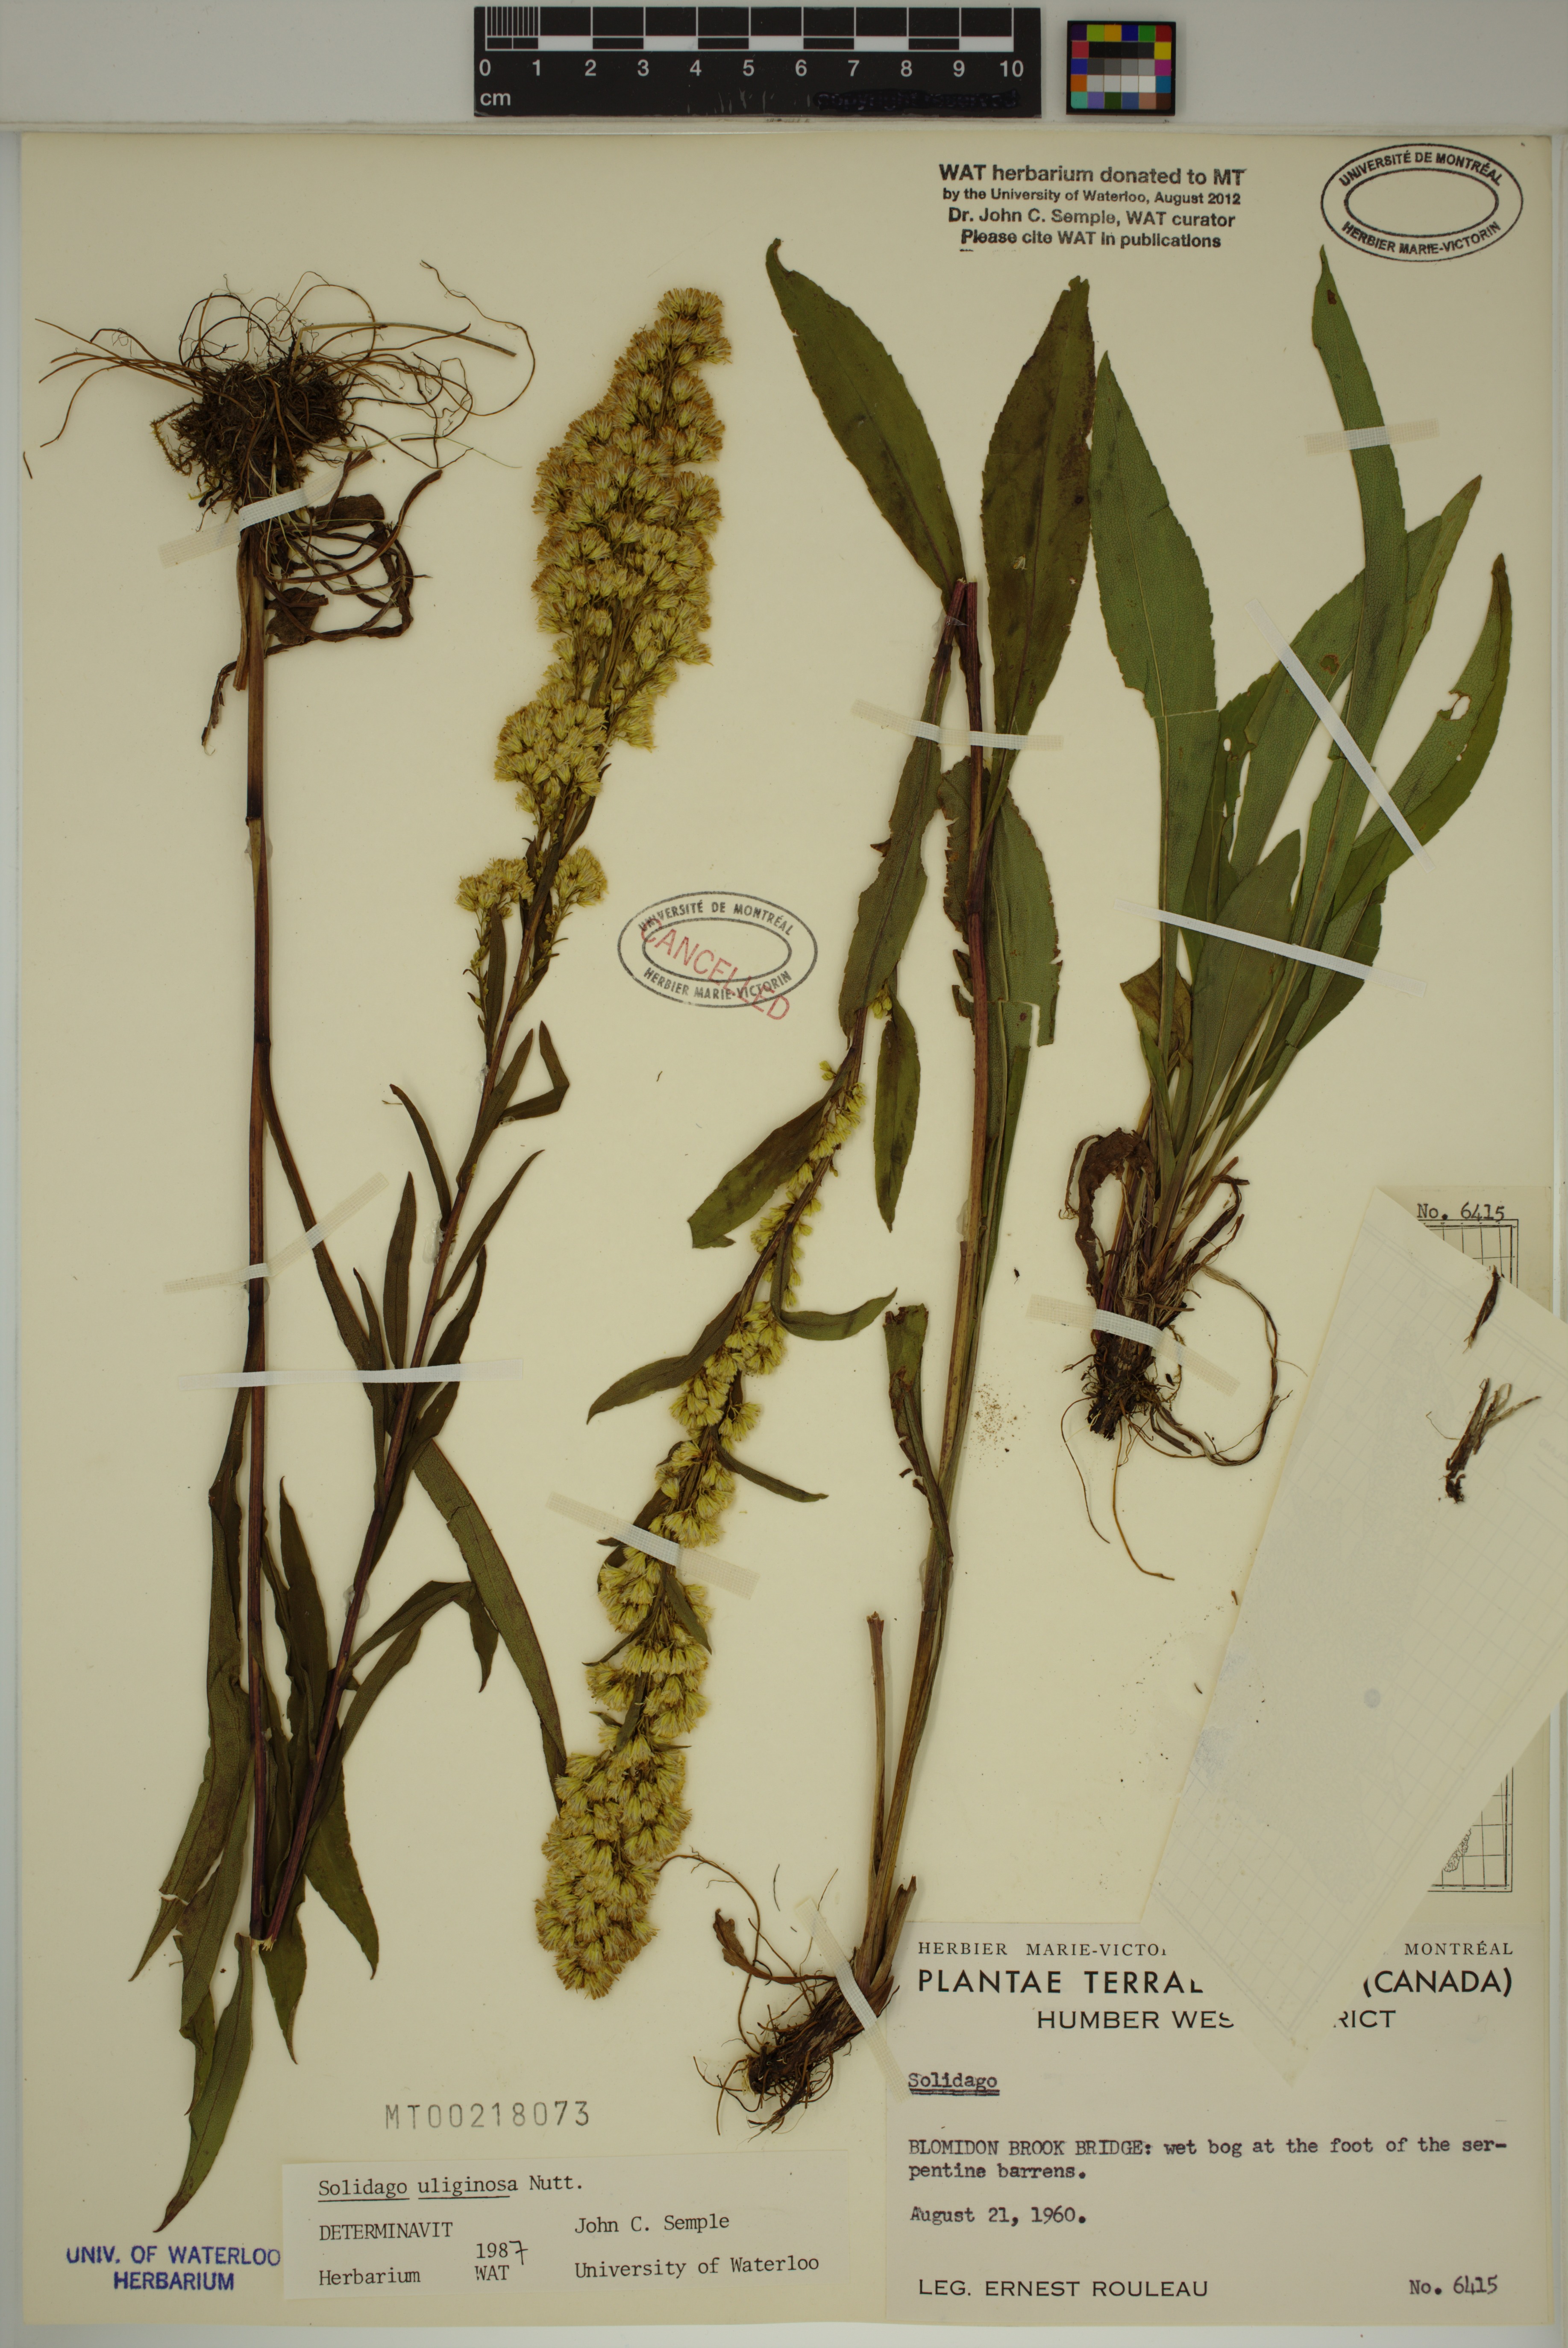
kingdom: Plantae
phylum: Tracheophyta
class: Magnoliopsida
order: Asterales
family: Asteraceae
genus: Solidago
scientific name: Solidago uliginosa
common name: Bog goldenrod
